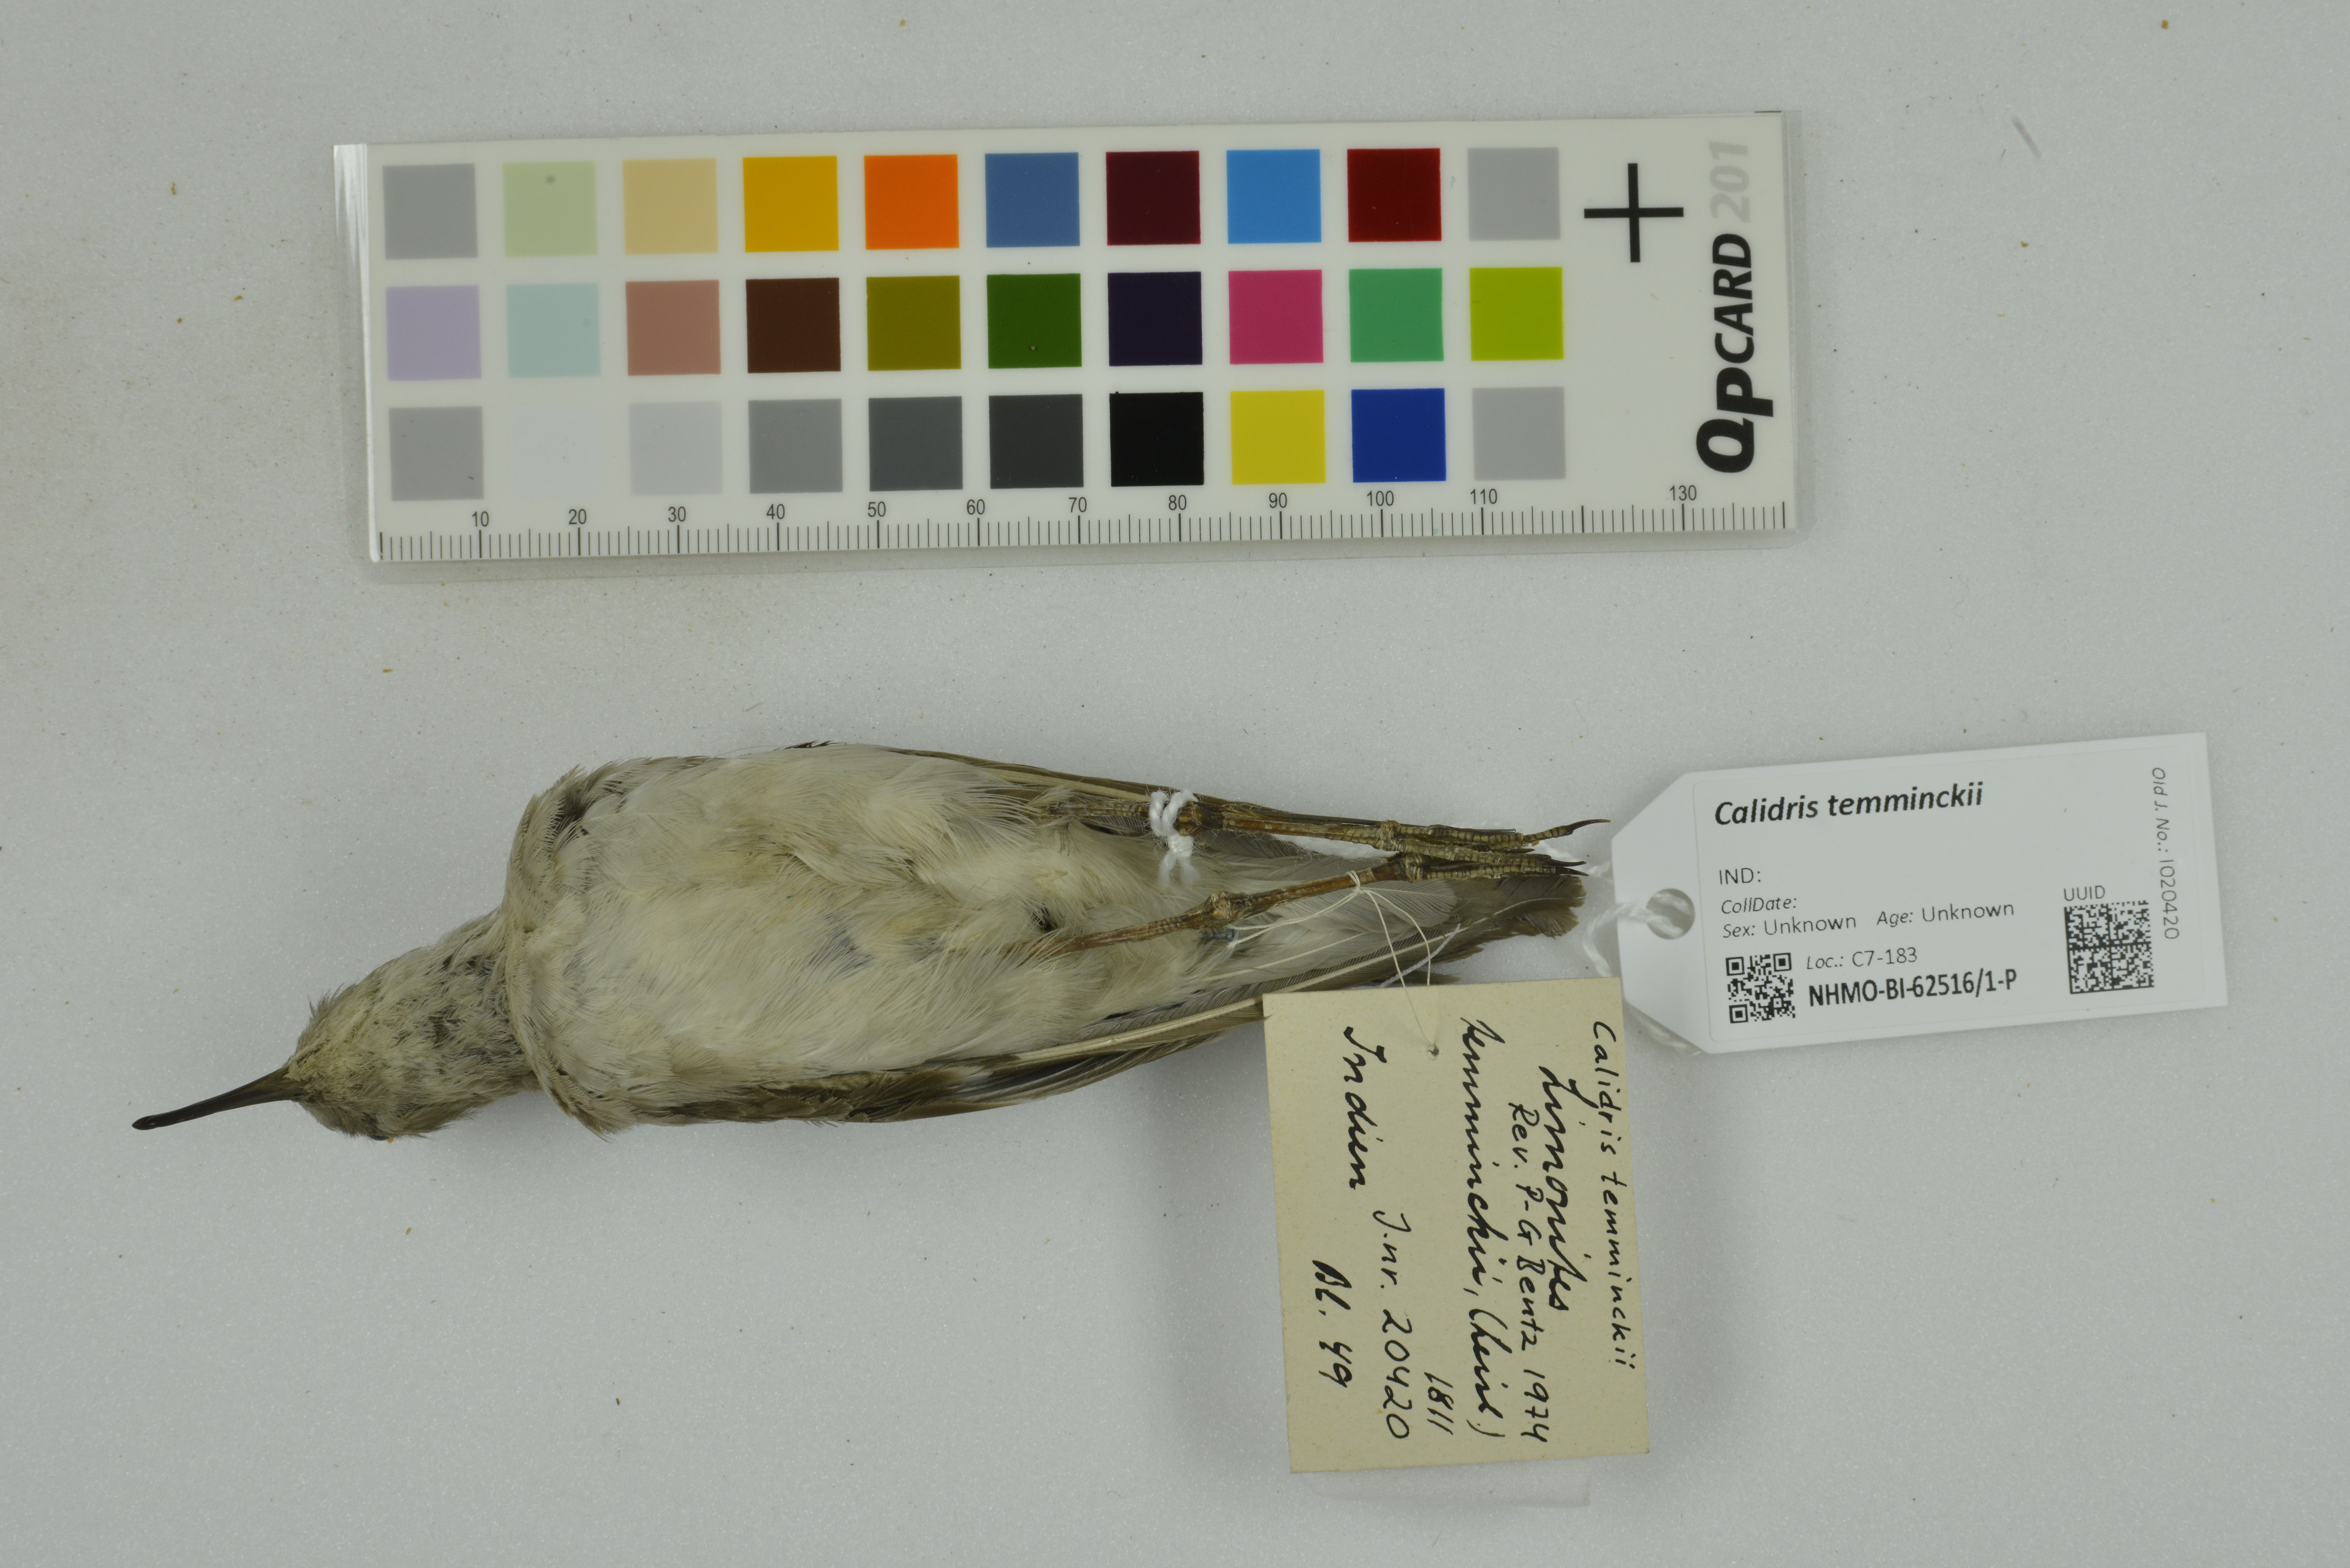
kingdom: Animalia
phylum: Chordata
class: Aves
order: Charadriiformes
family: Scolopacidae
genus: Calidris
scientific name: Calidris temminckii
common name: Temminck's stint
